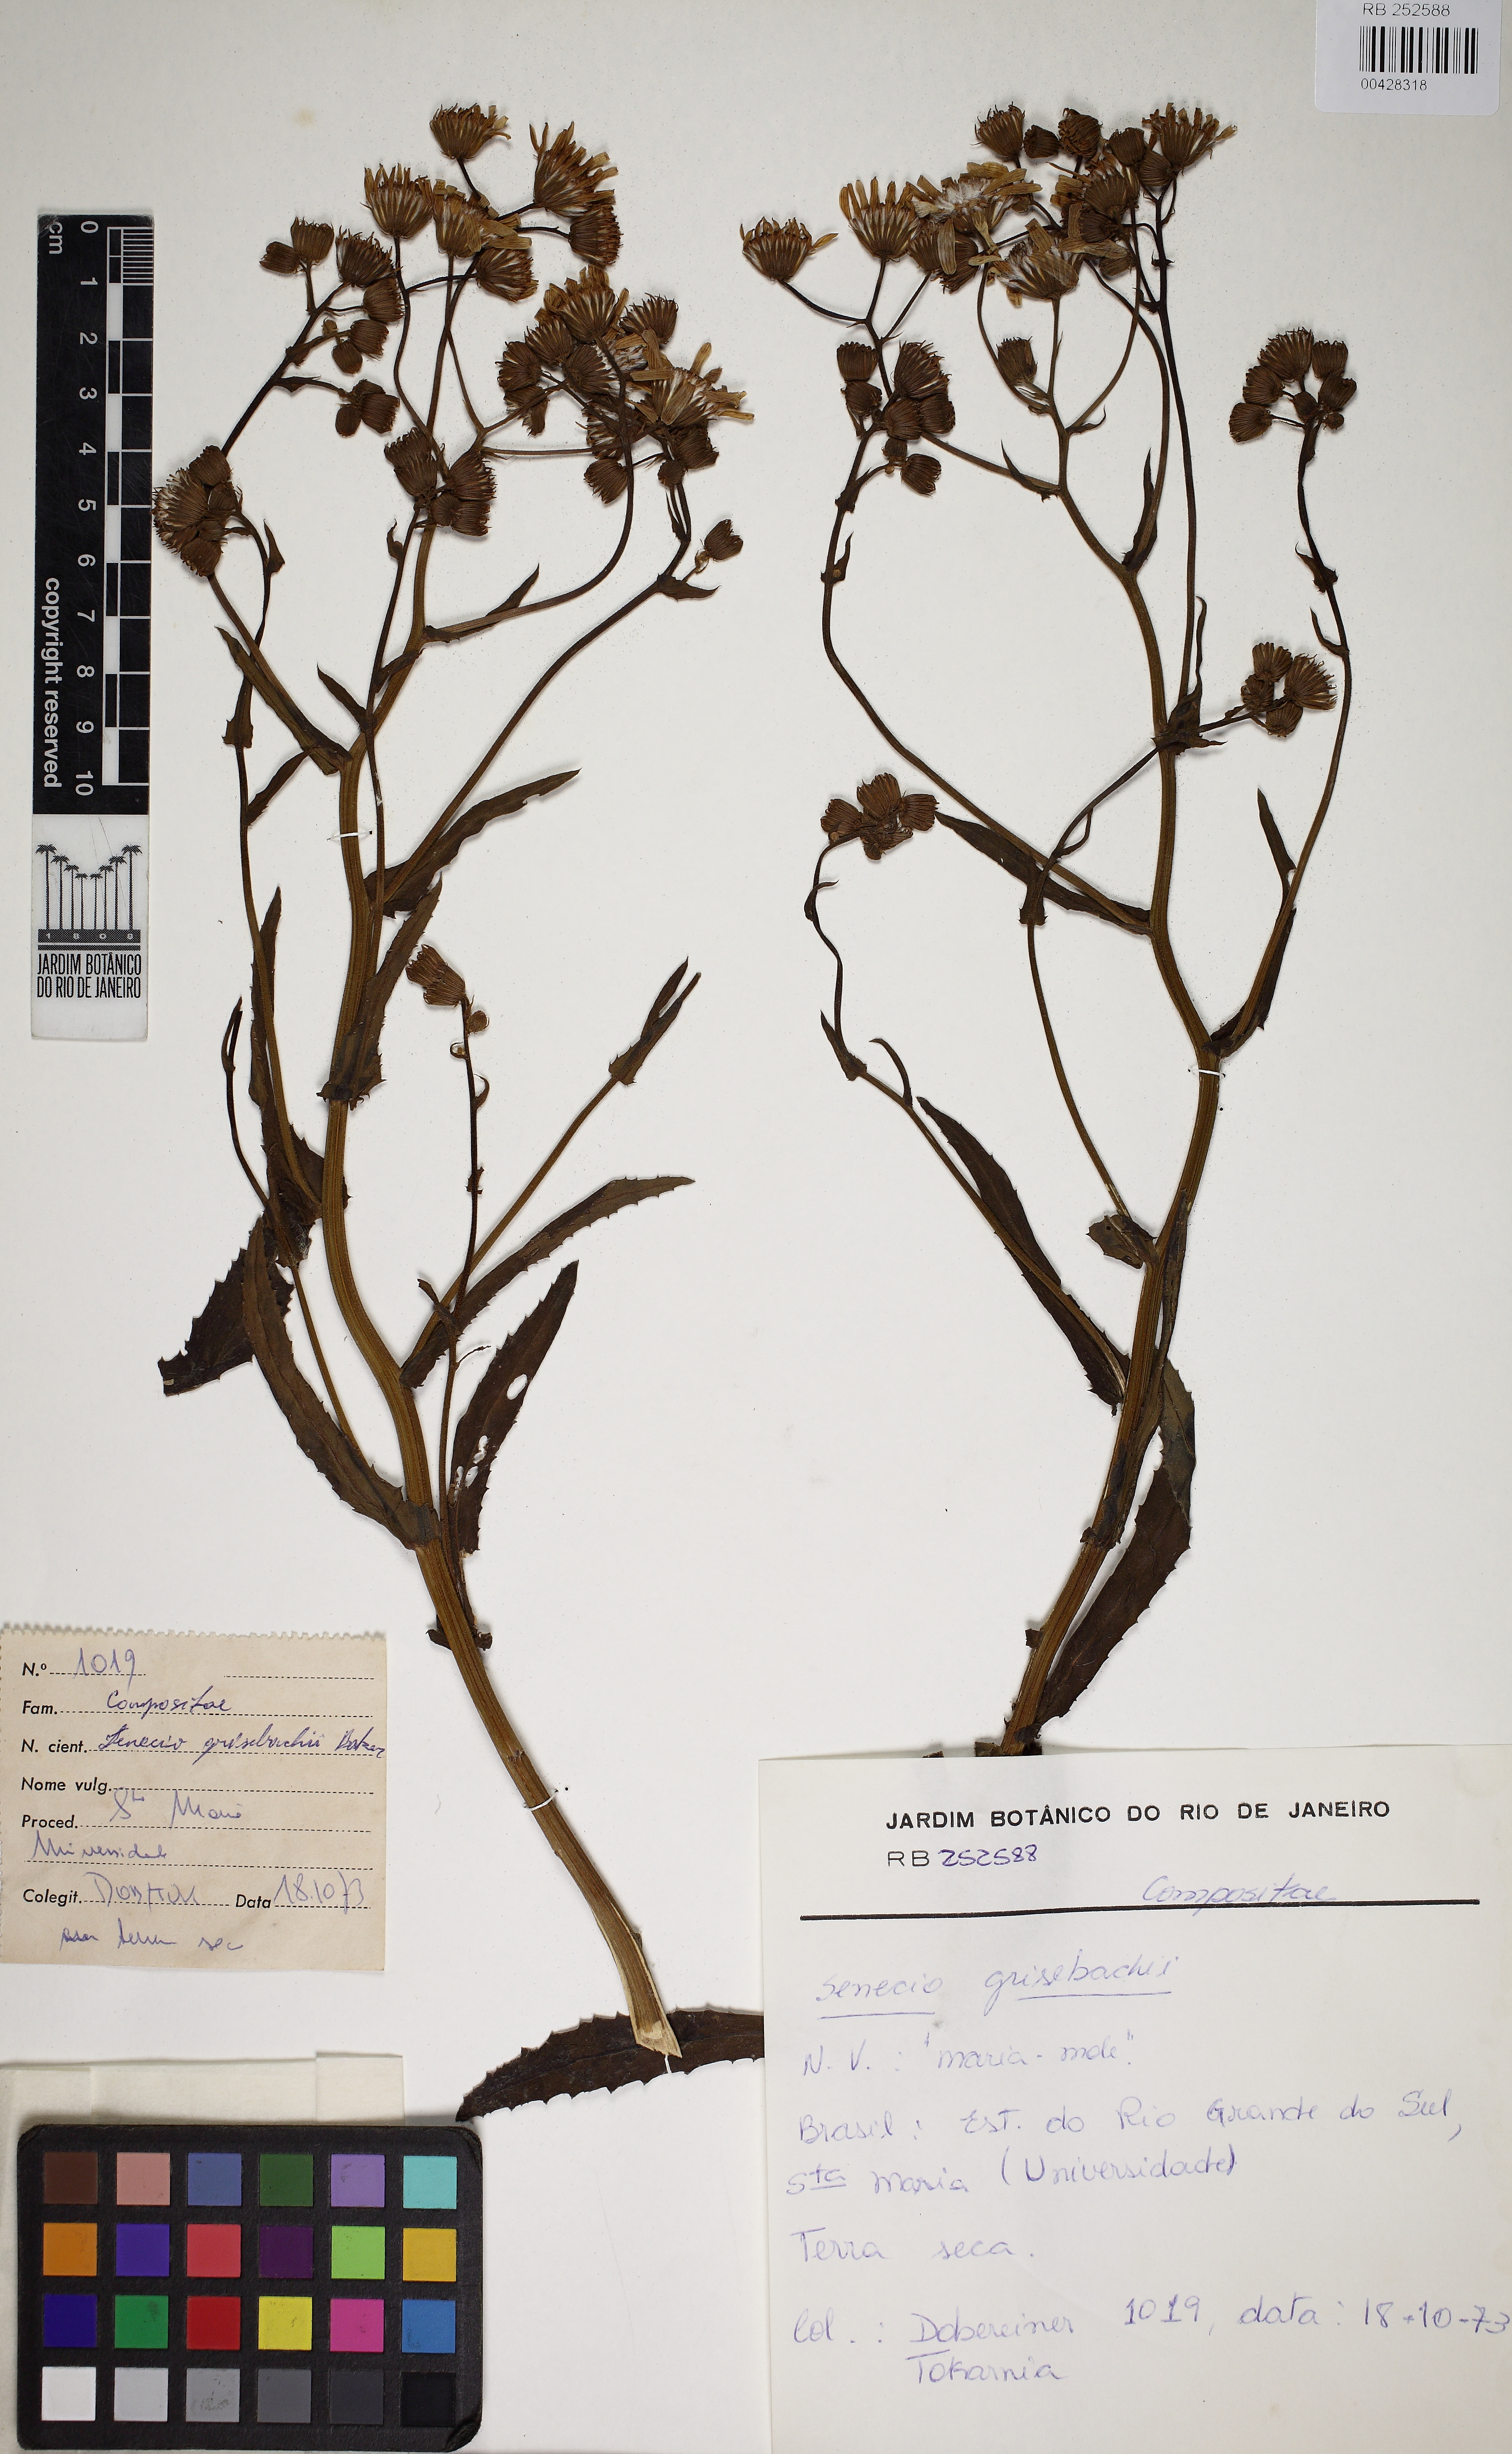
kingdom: Plantae
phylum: Tracheophyta
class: Magnoliopsida
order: Asterales
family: Asteraceae
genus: Senecio
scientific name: Senecio grisebachii
